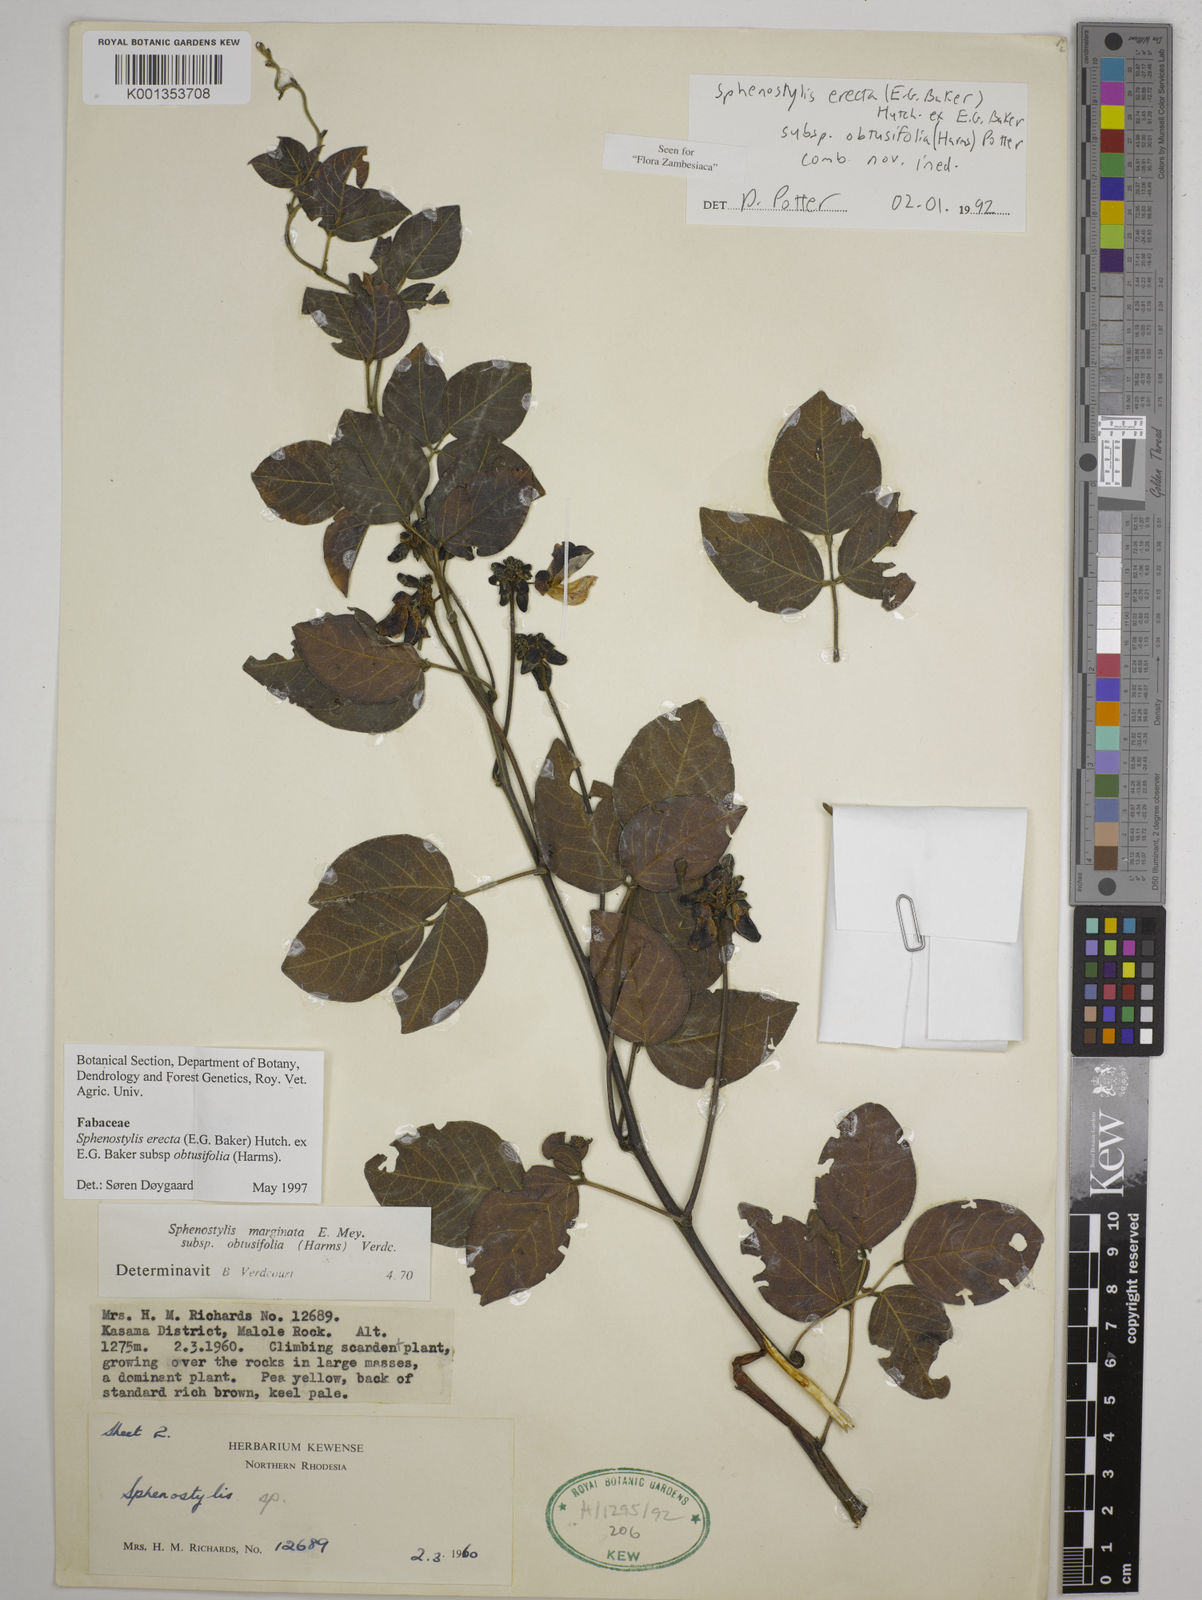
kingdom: Plantae
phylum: Tracheophyta
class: Magnoliopsida
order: Fabales
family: Fabaceae
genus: Sphenostylis
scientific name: Sphenostylis
